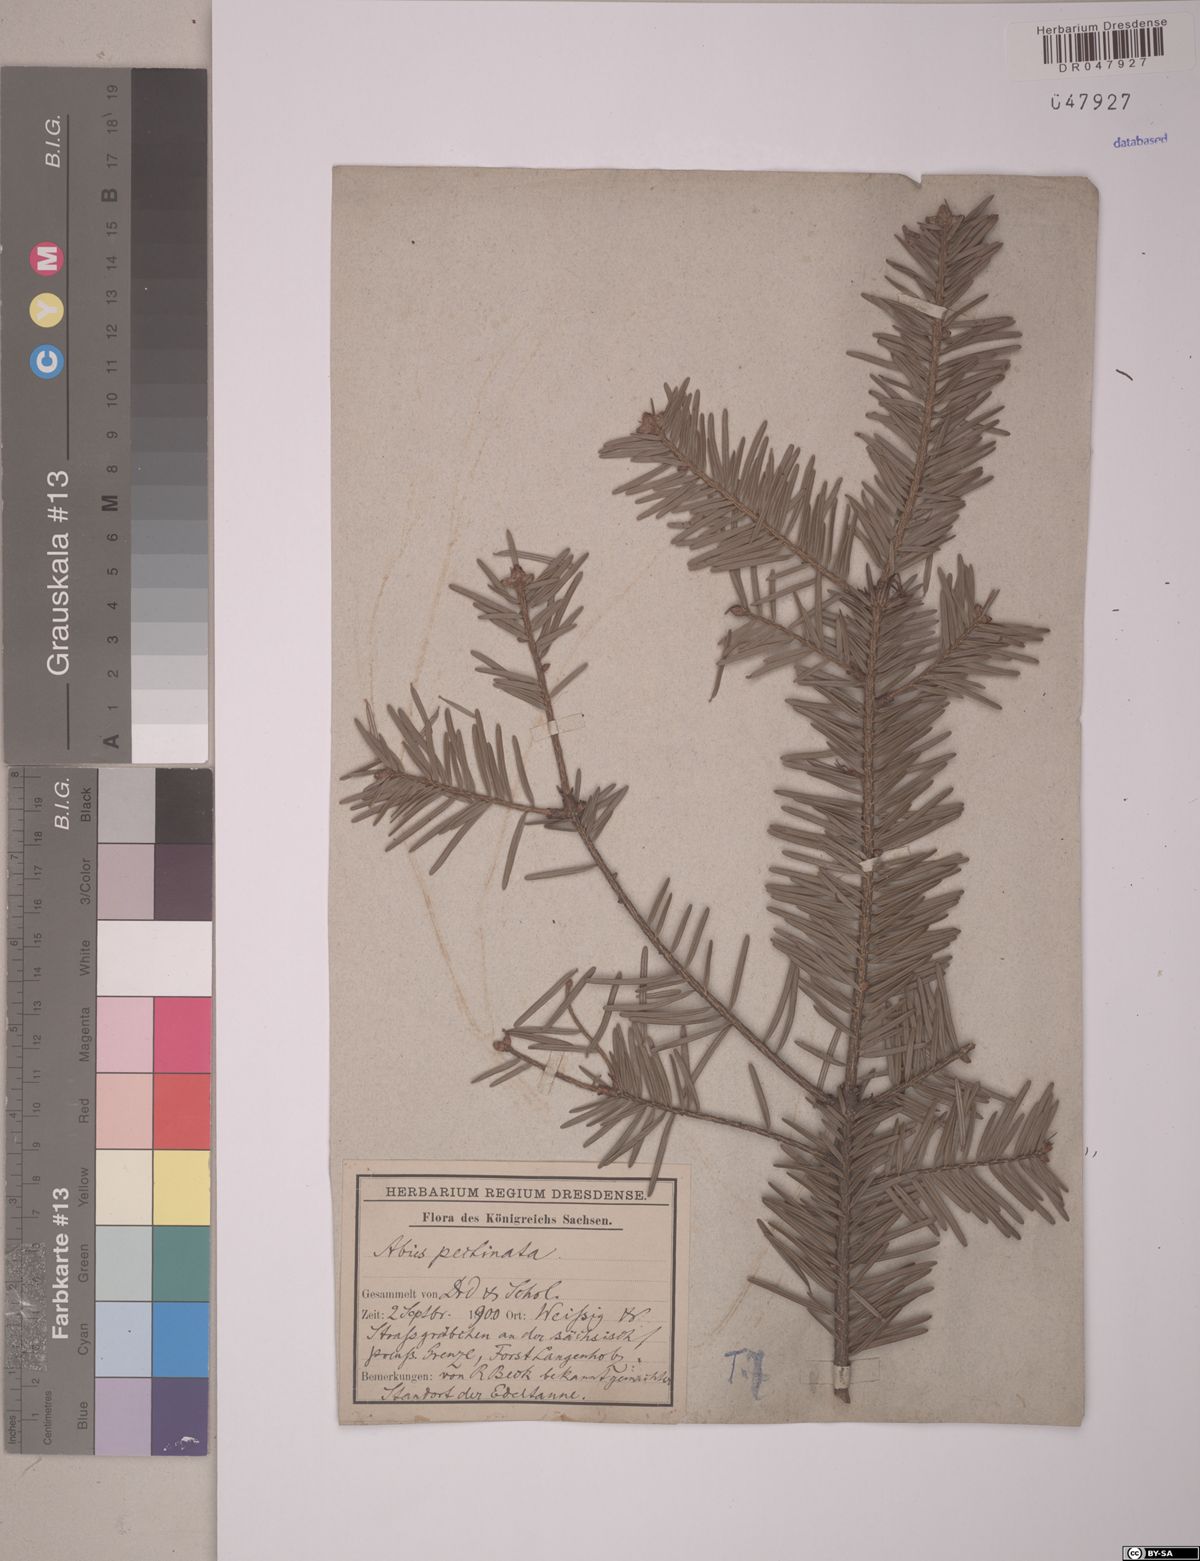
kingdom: Plantae
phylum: Tracheophyta
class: Pinopsida
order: Pinales
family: Pinaceae
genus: Abies
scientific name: Abies alba
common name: Silver fir
